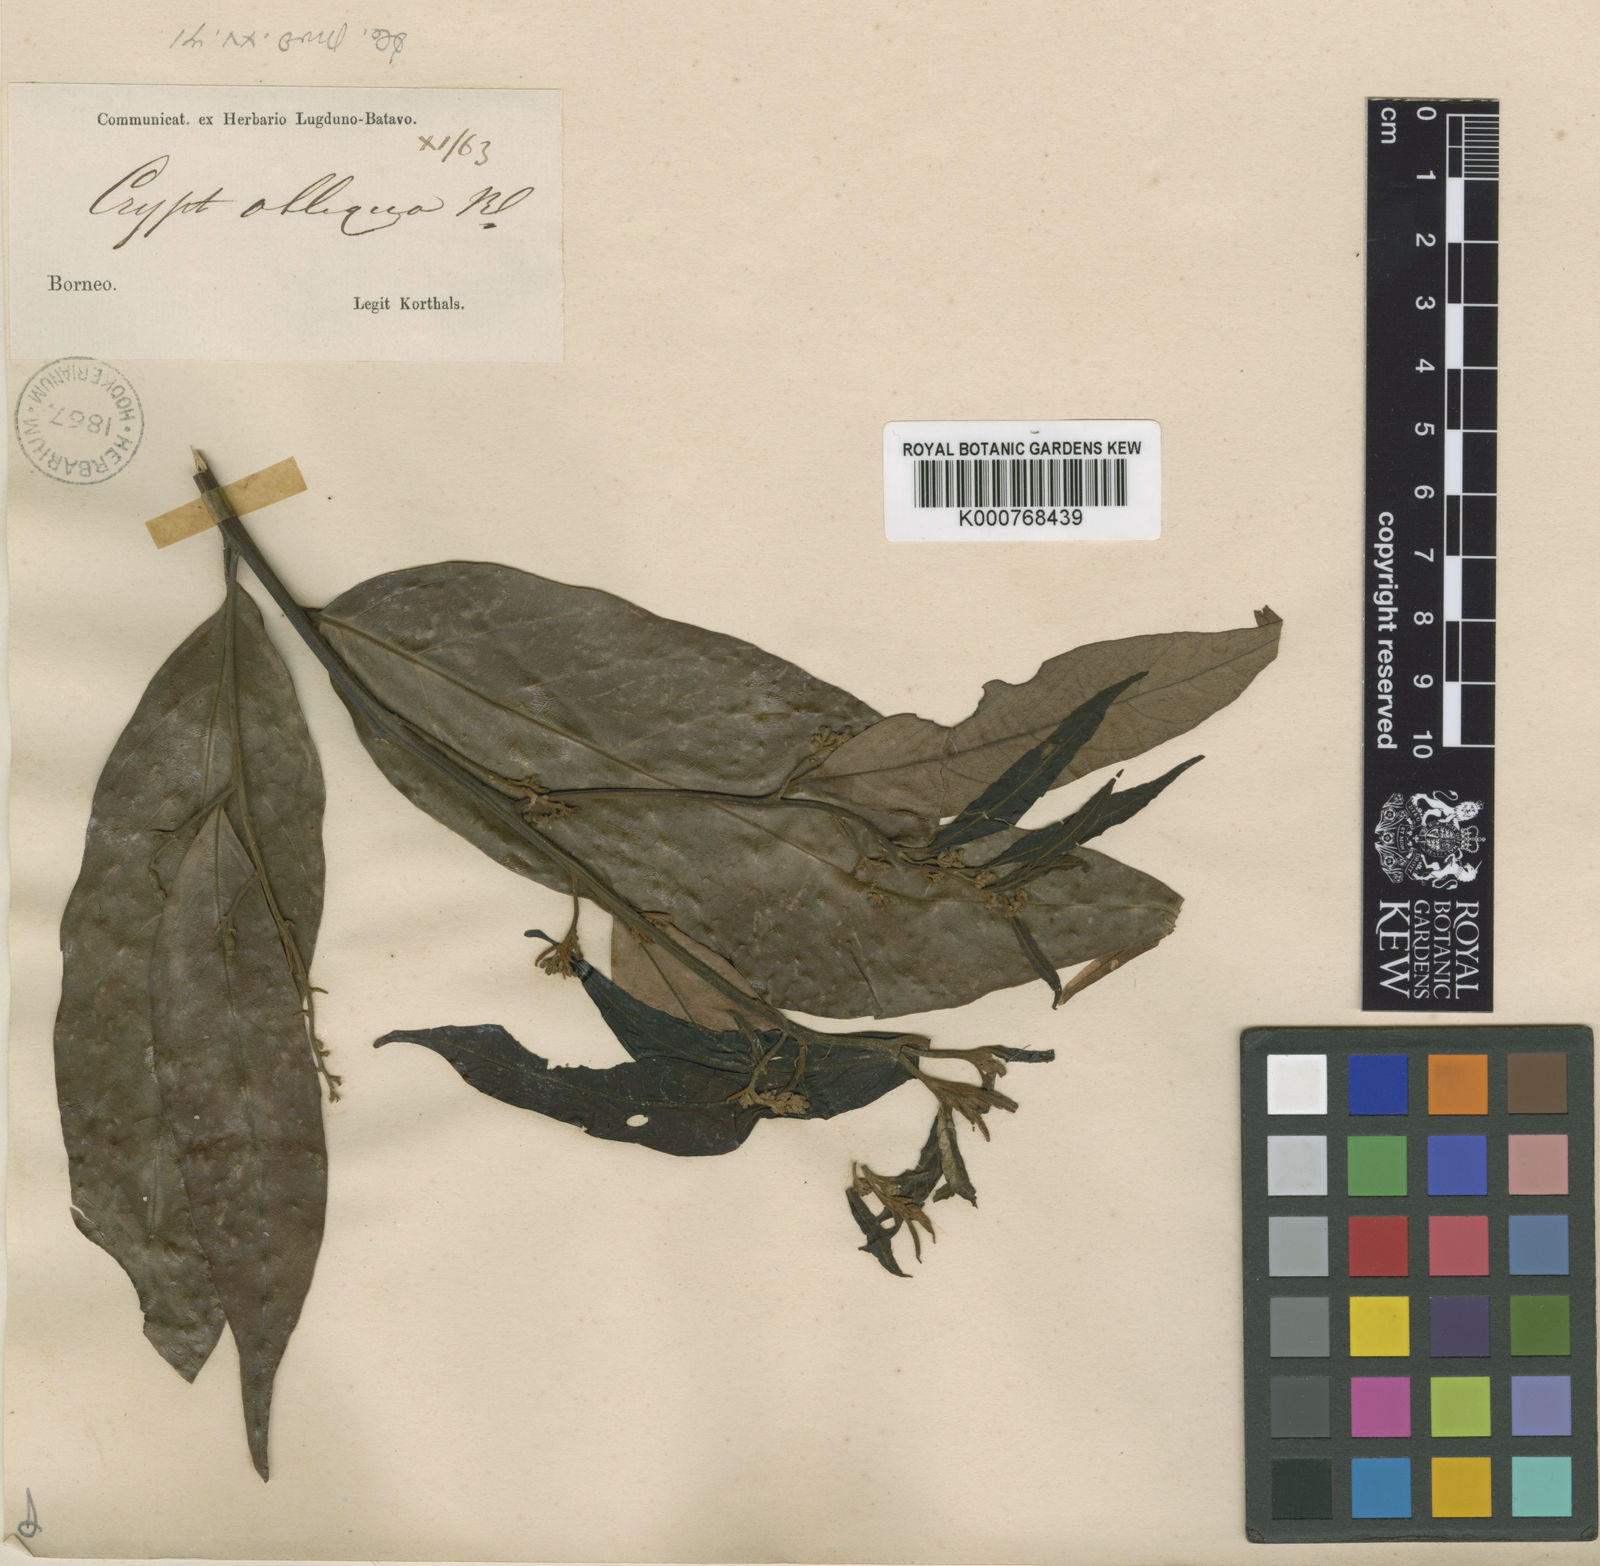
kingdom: Plantae
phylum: Tracheophyta
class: Magnoliopsida
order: Laurales
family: Lauraceae
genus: Cryptocarya
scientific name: Cryptocarya obliqua
